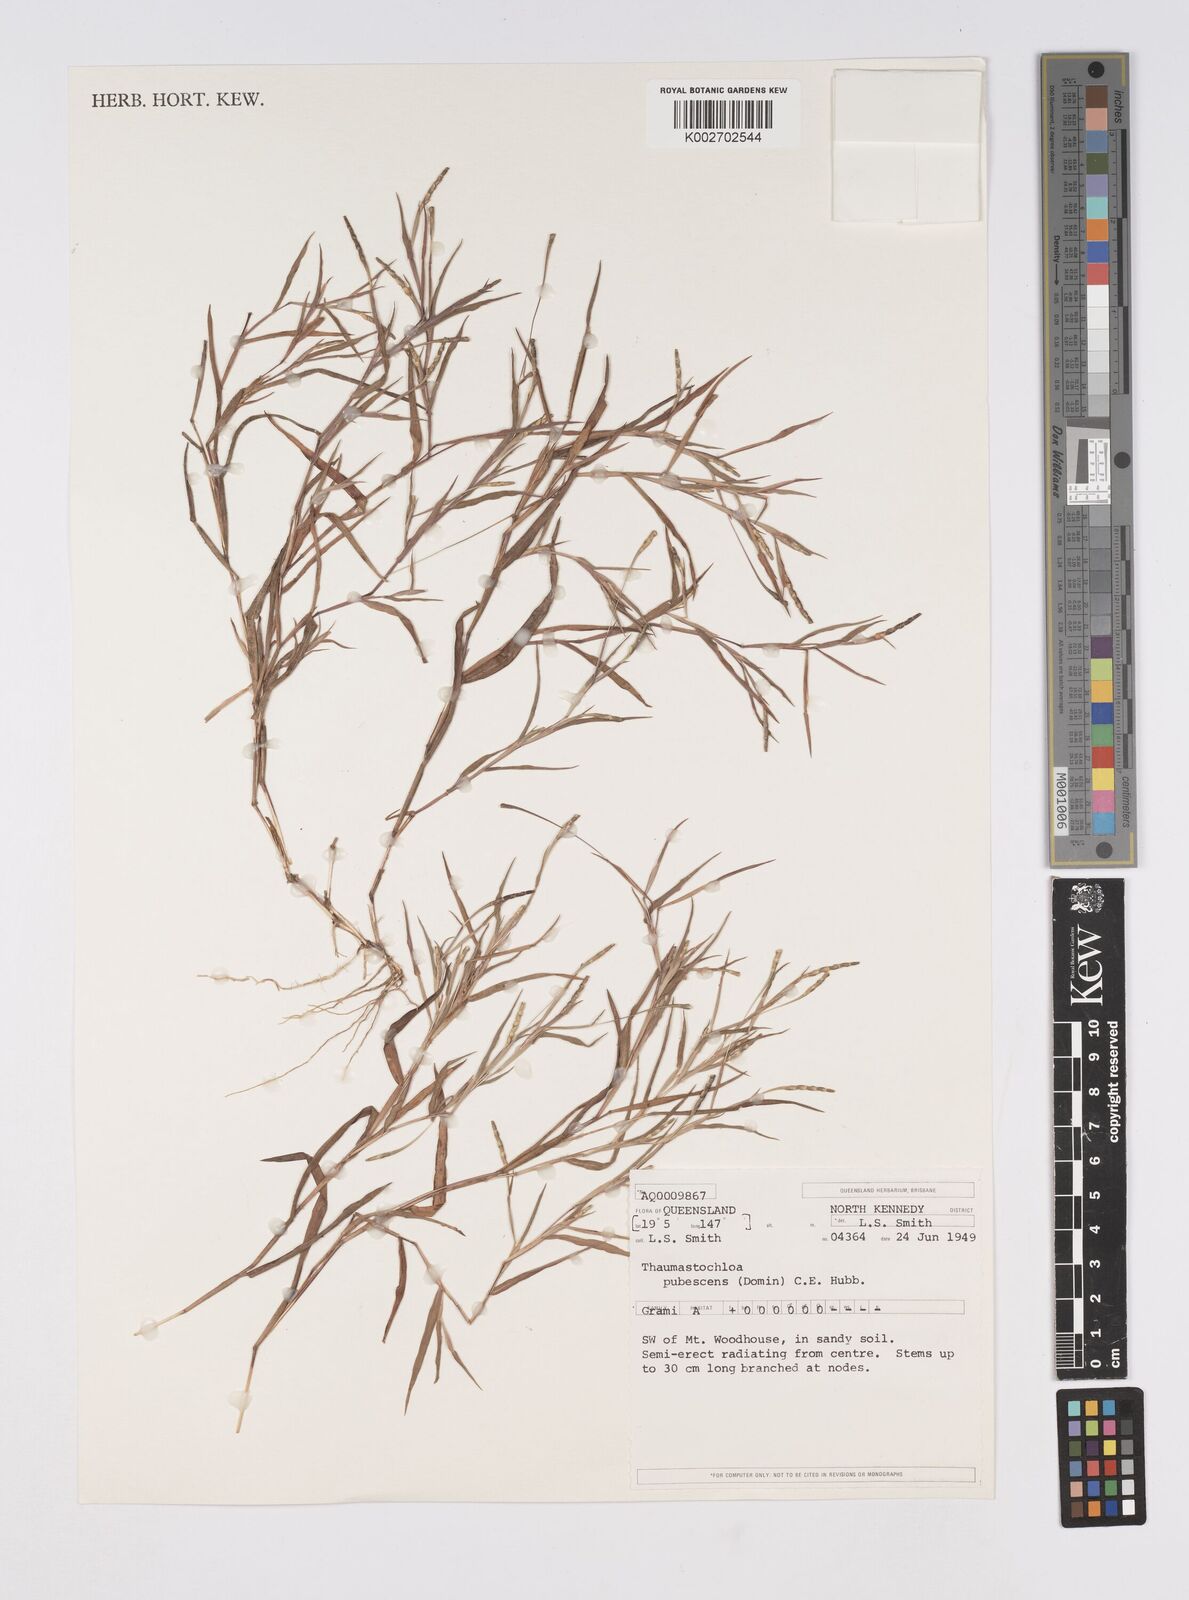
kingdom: Plantae
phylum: Tracheophyta
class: Liliopsida
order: Poales
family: Poaceae
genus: Thaumastochloa
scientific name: Thaumastochloa pubescens
